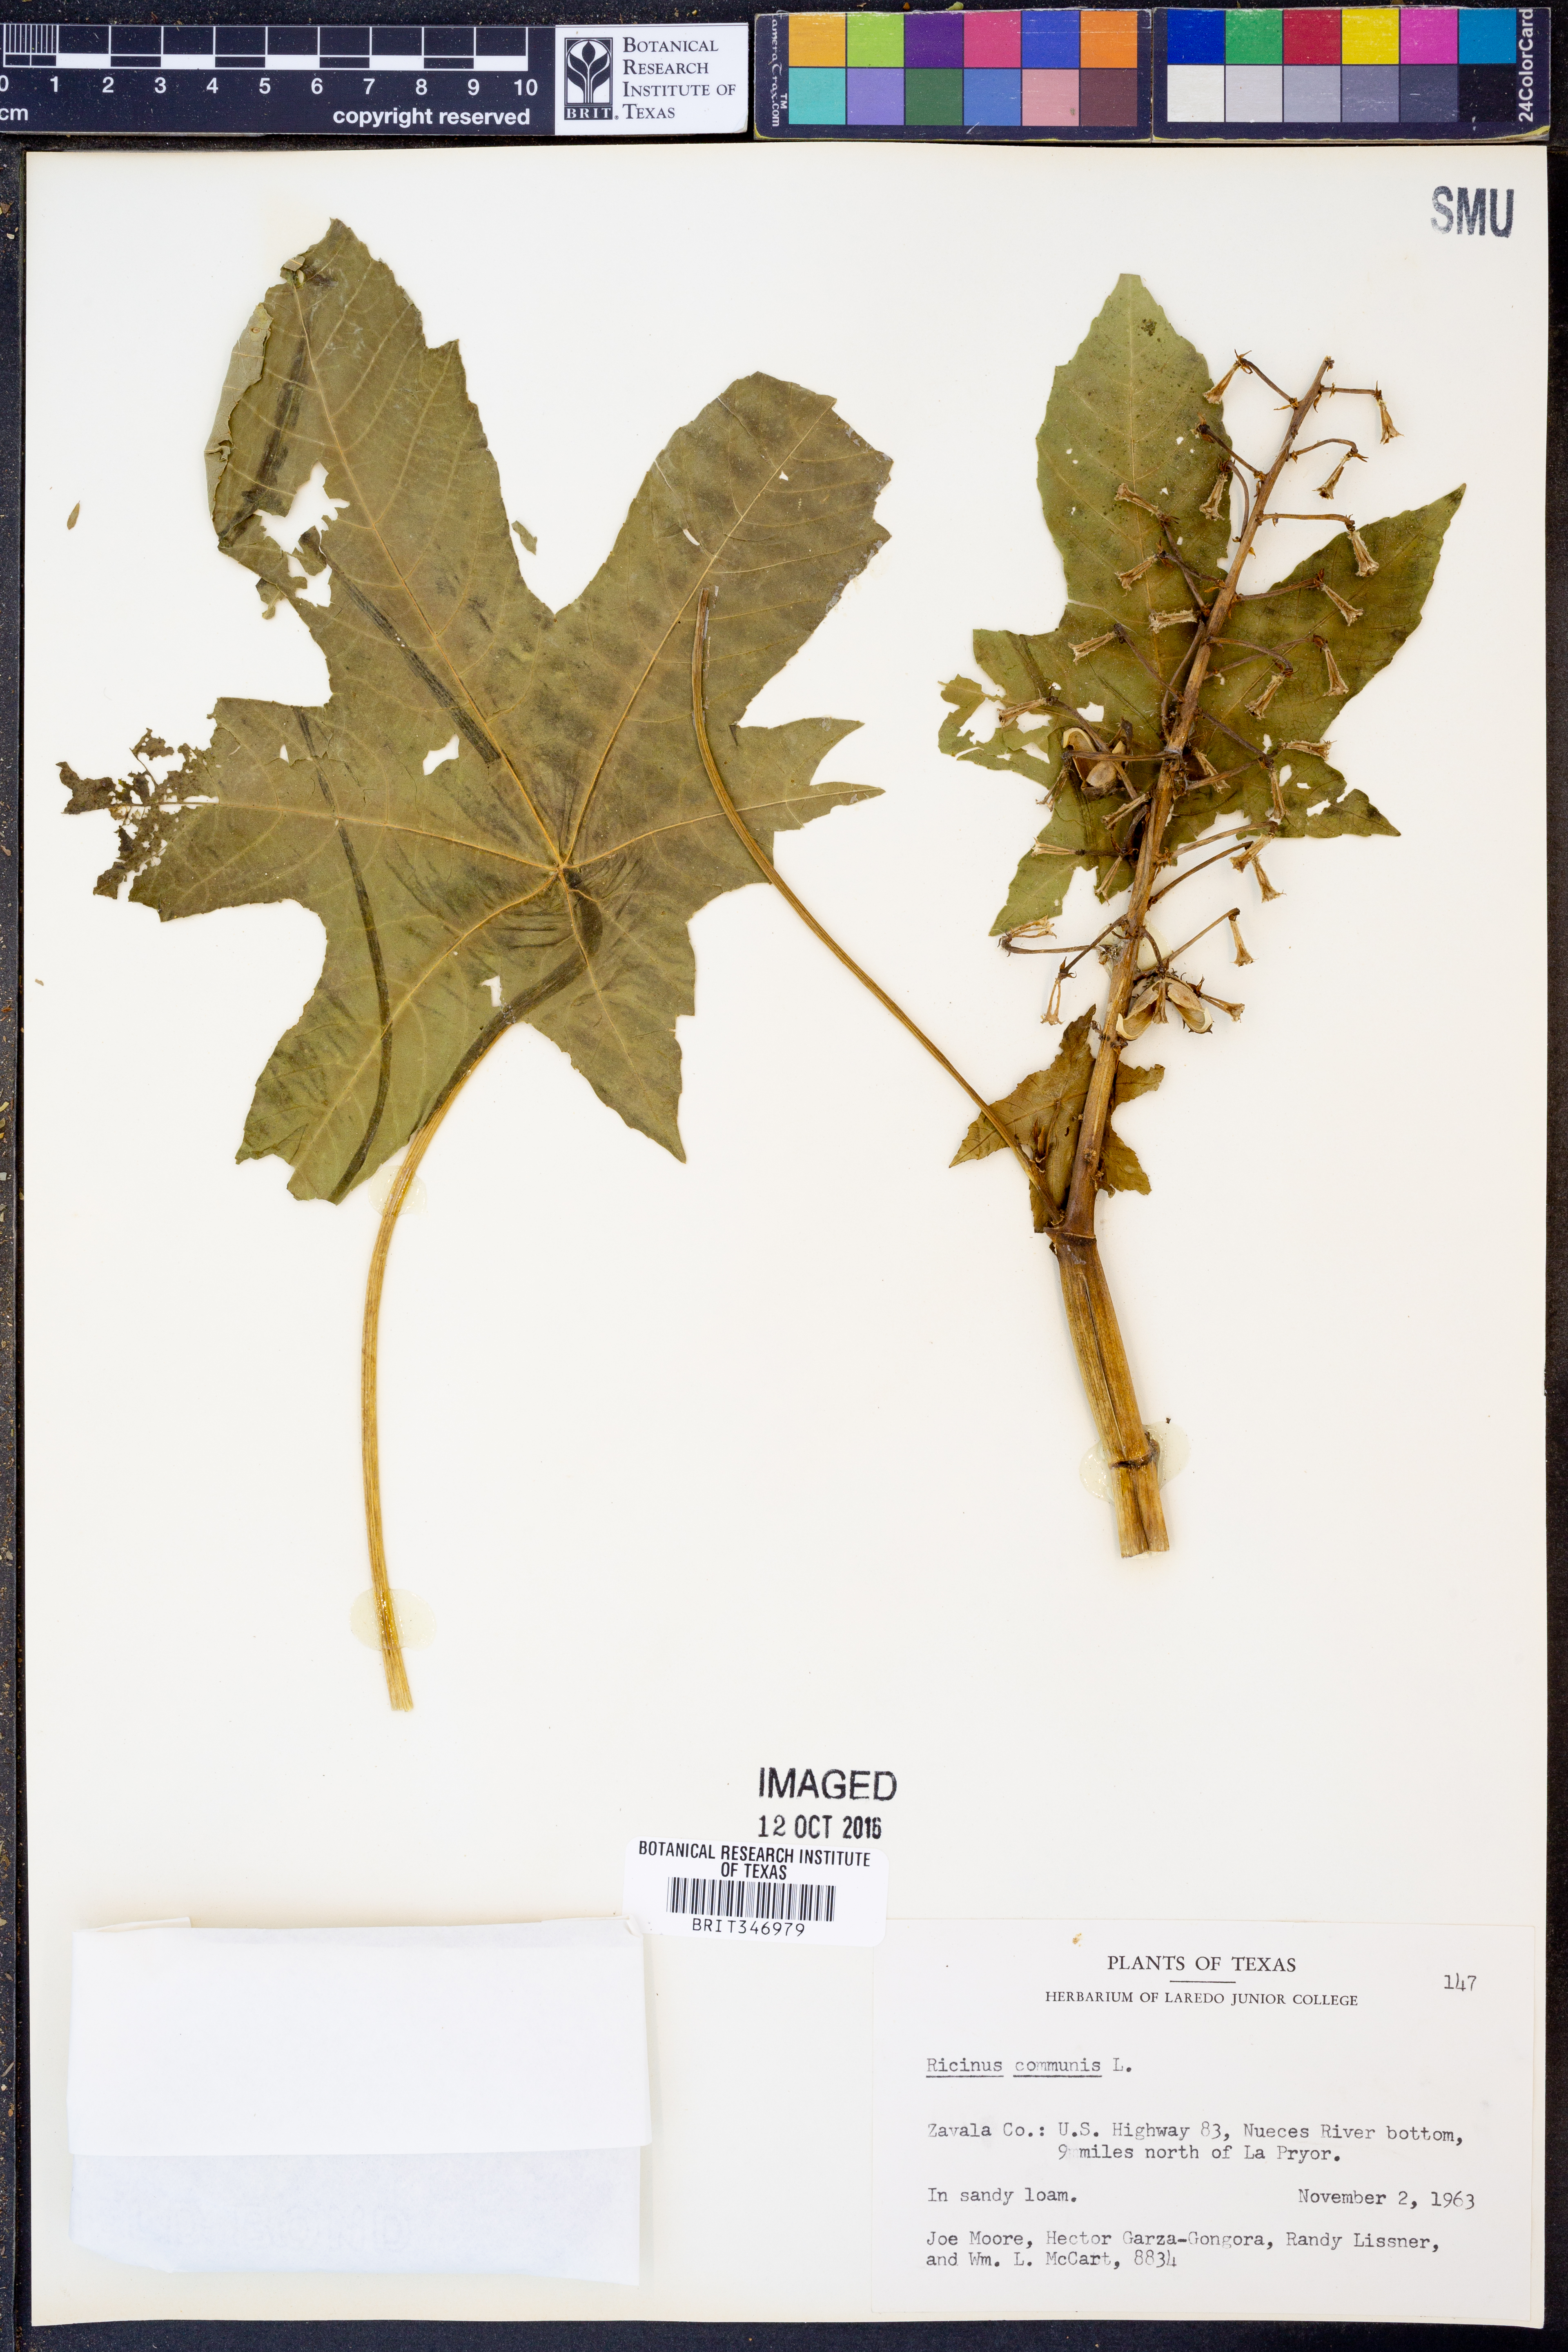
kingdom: Plantae
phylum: Tracheophyta
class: Magnoliopsida
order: Malpighiales
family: Euphorbiaceae
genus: Ricinus
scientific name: Ricinus communis
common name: Castor-oil-plant
